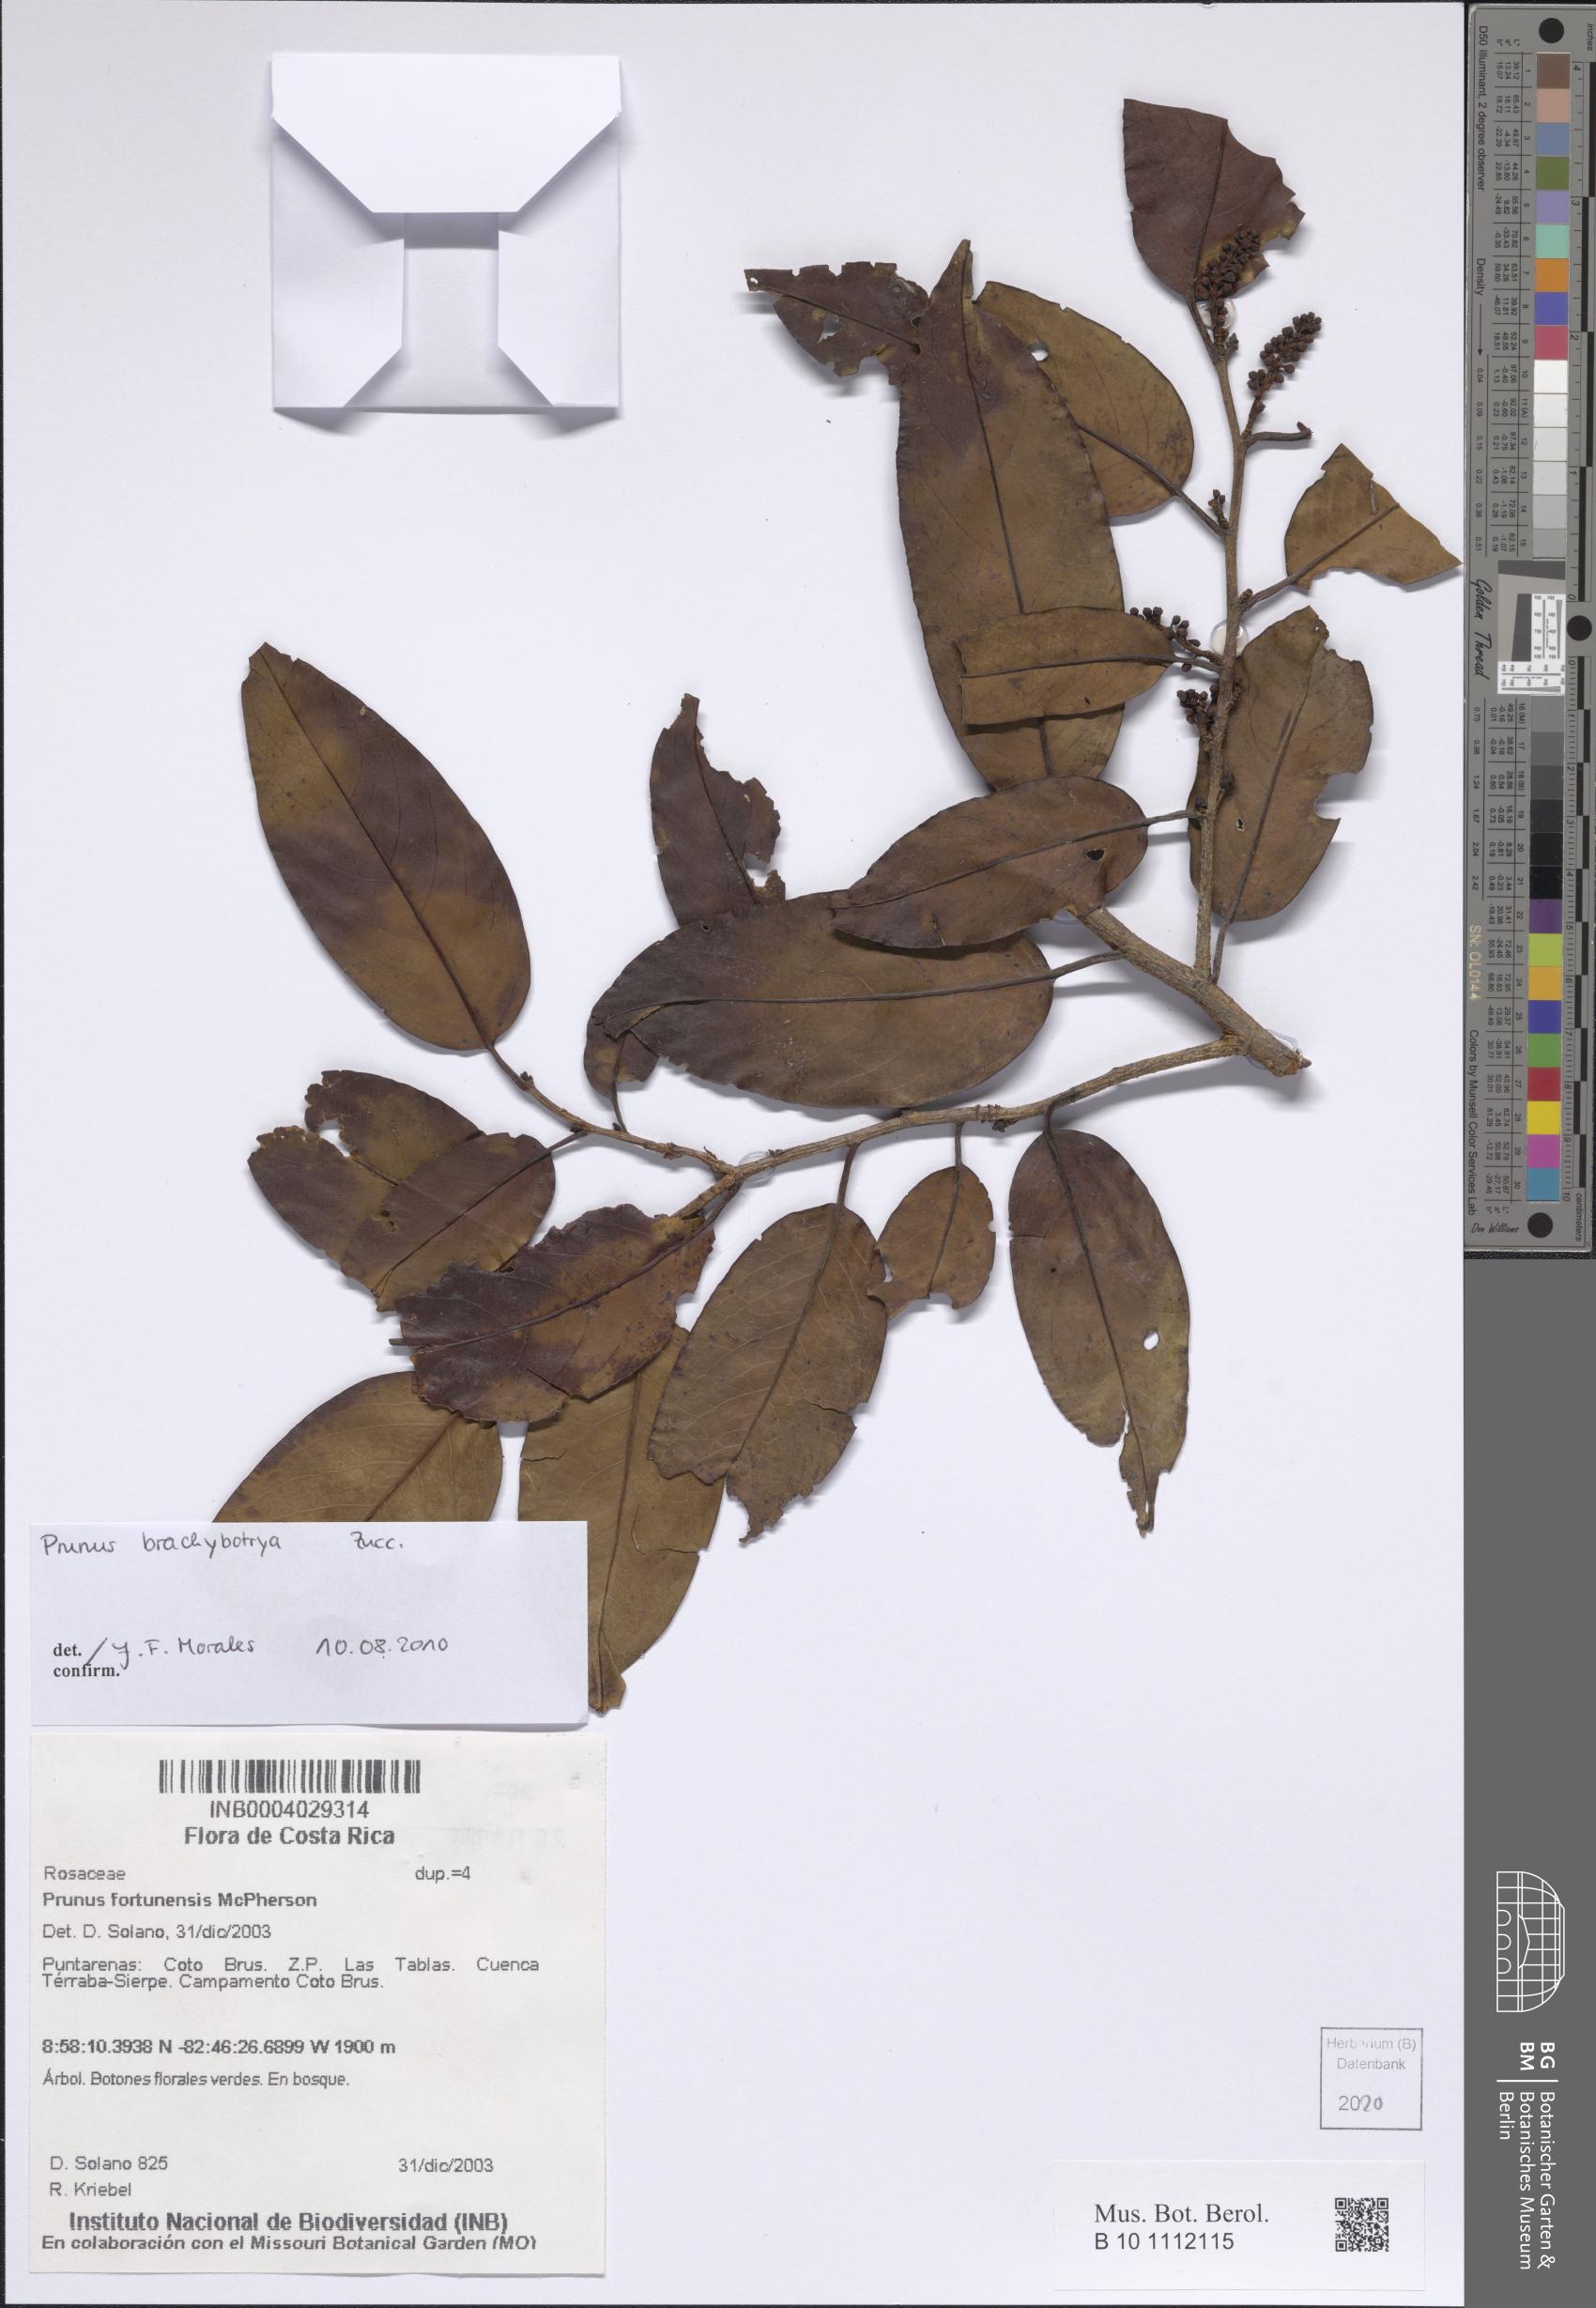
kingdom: Plantae
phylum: Tracheophyta
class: Magnoliopsida
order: Rosales
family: Rosaceae
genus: Prunus
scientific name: Prunus brachybotrya
